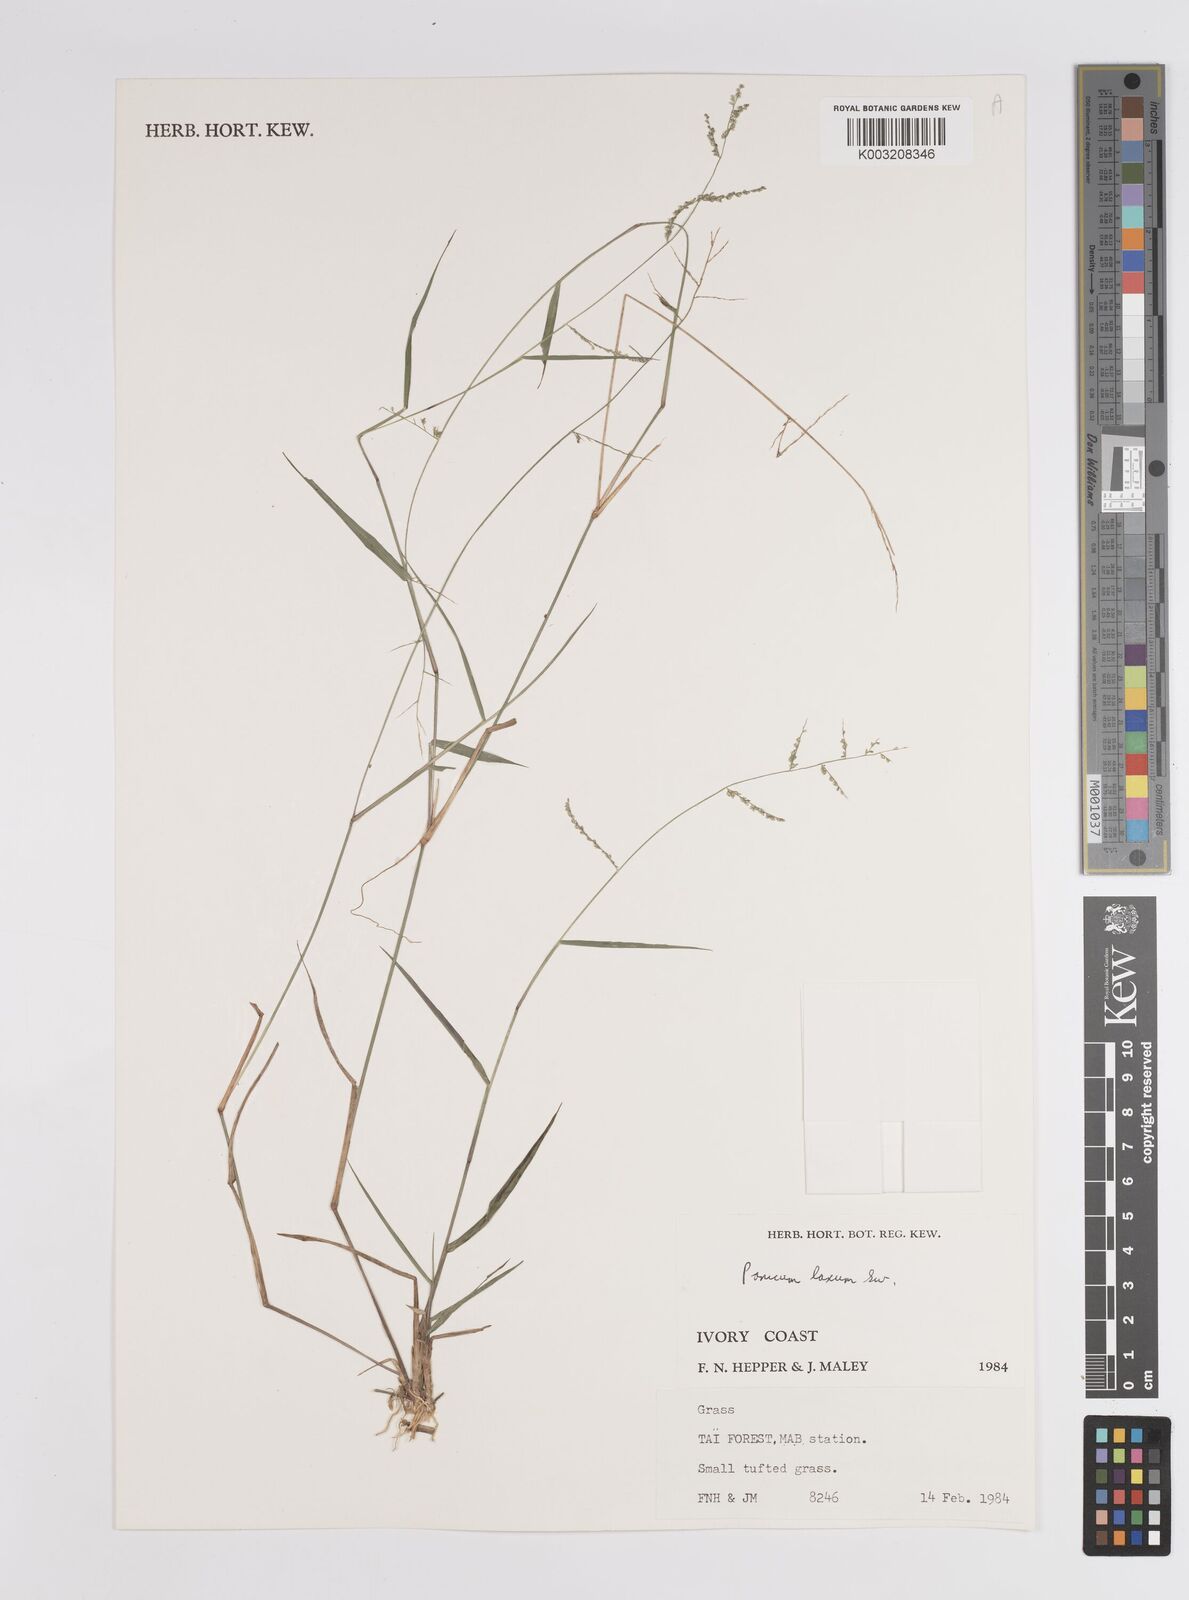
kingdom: Plantae
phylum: Tracheophyta
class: Liliopsida
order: Poales
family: Poaceae
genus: Steinchisma
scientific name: Steinchisma laxum
